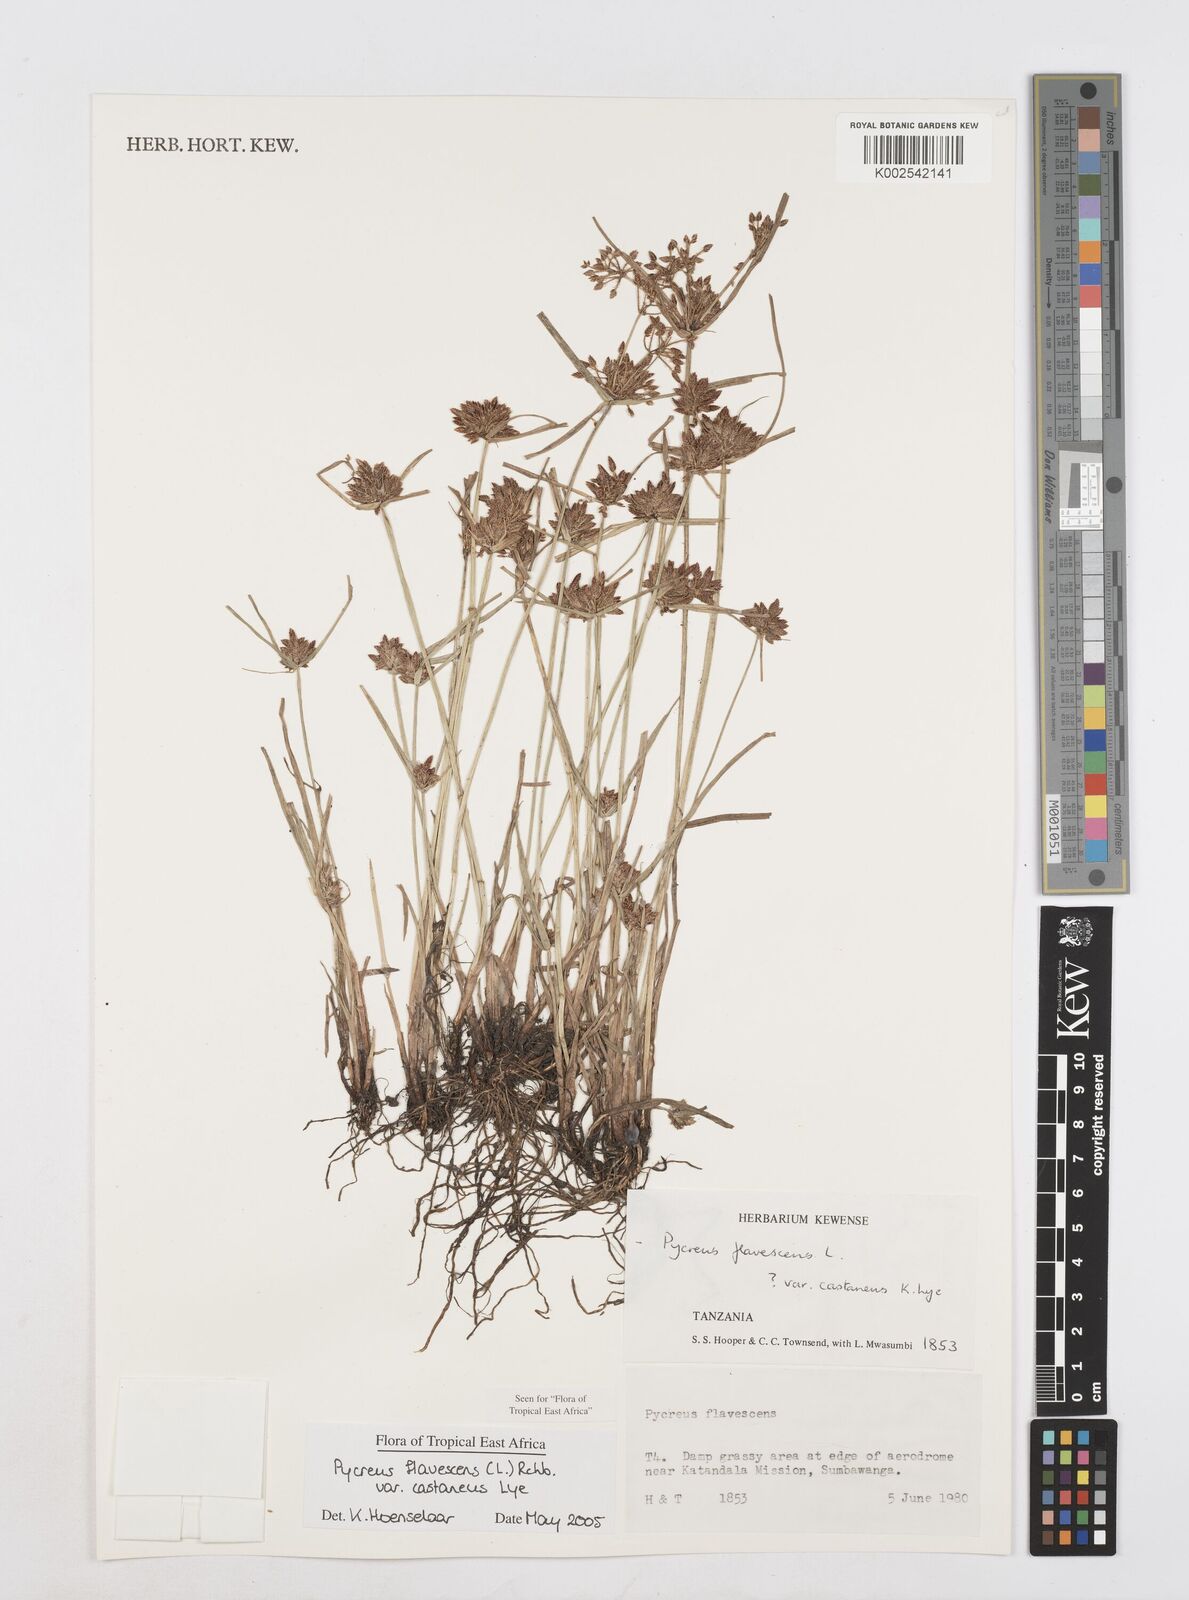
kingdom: Plantae
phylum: Tracheophyta
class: Liliopsida
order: Poales
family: Cyperaceae
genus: Cyperus
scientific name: Cyperus flavescens
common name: Yellow galingale
